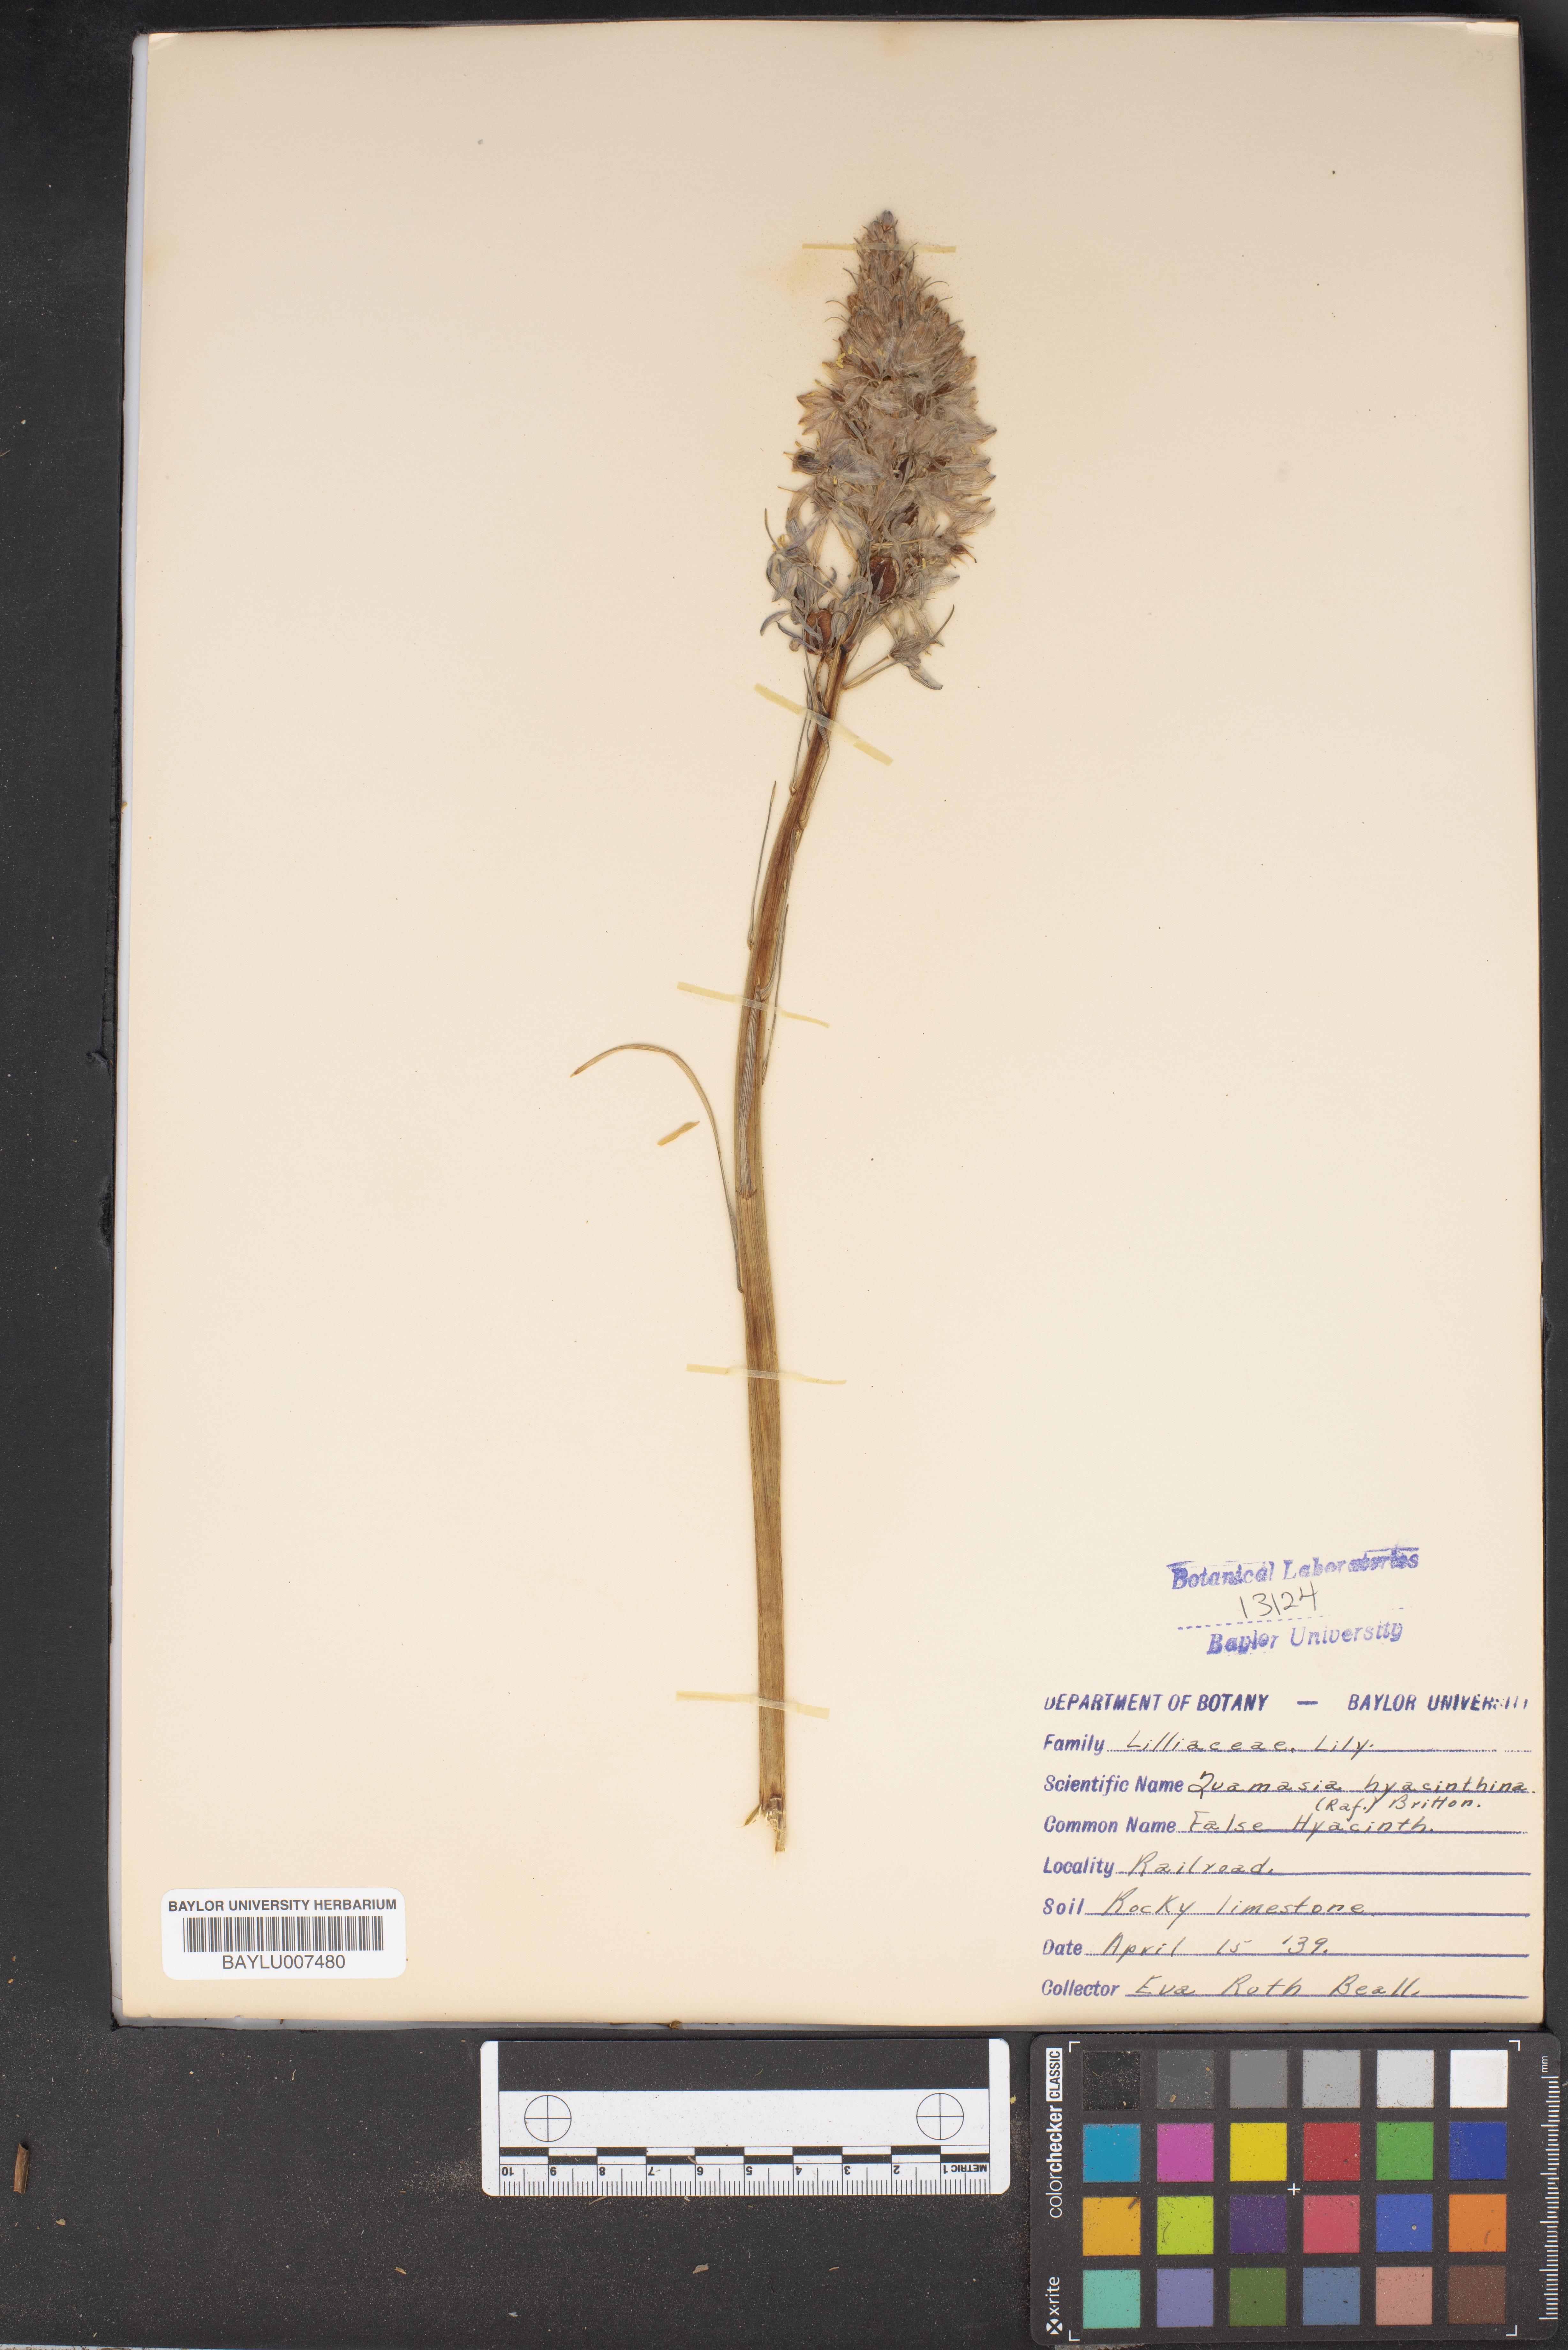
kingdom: Plantae
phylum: Tracheophyta
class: Liliopsida
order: Asparagales
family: Asparagaceae
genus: Camassia
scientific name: Camassia scilloides
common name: Wild hyacinth
